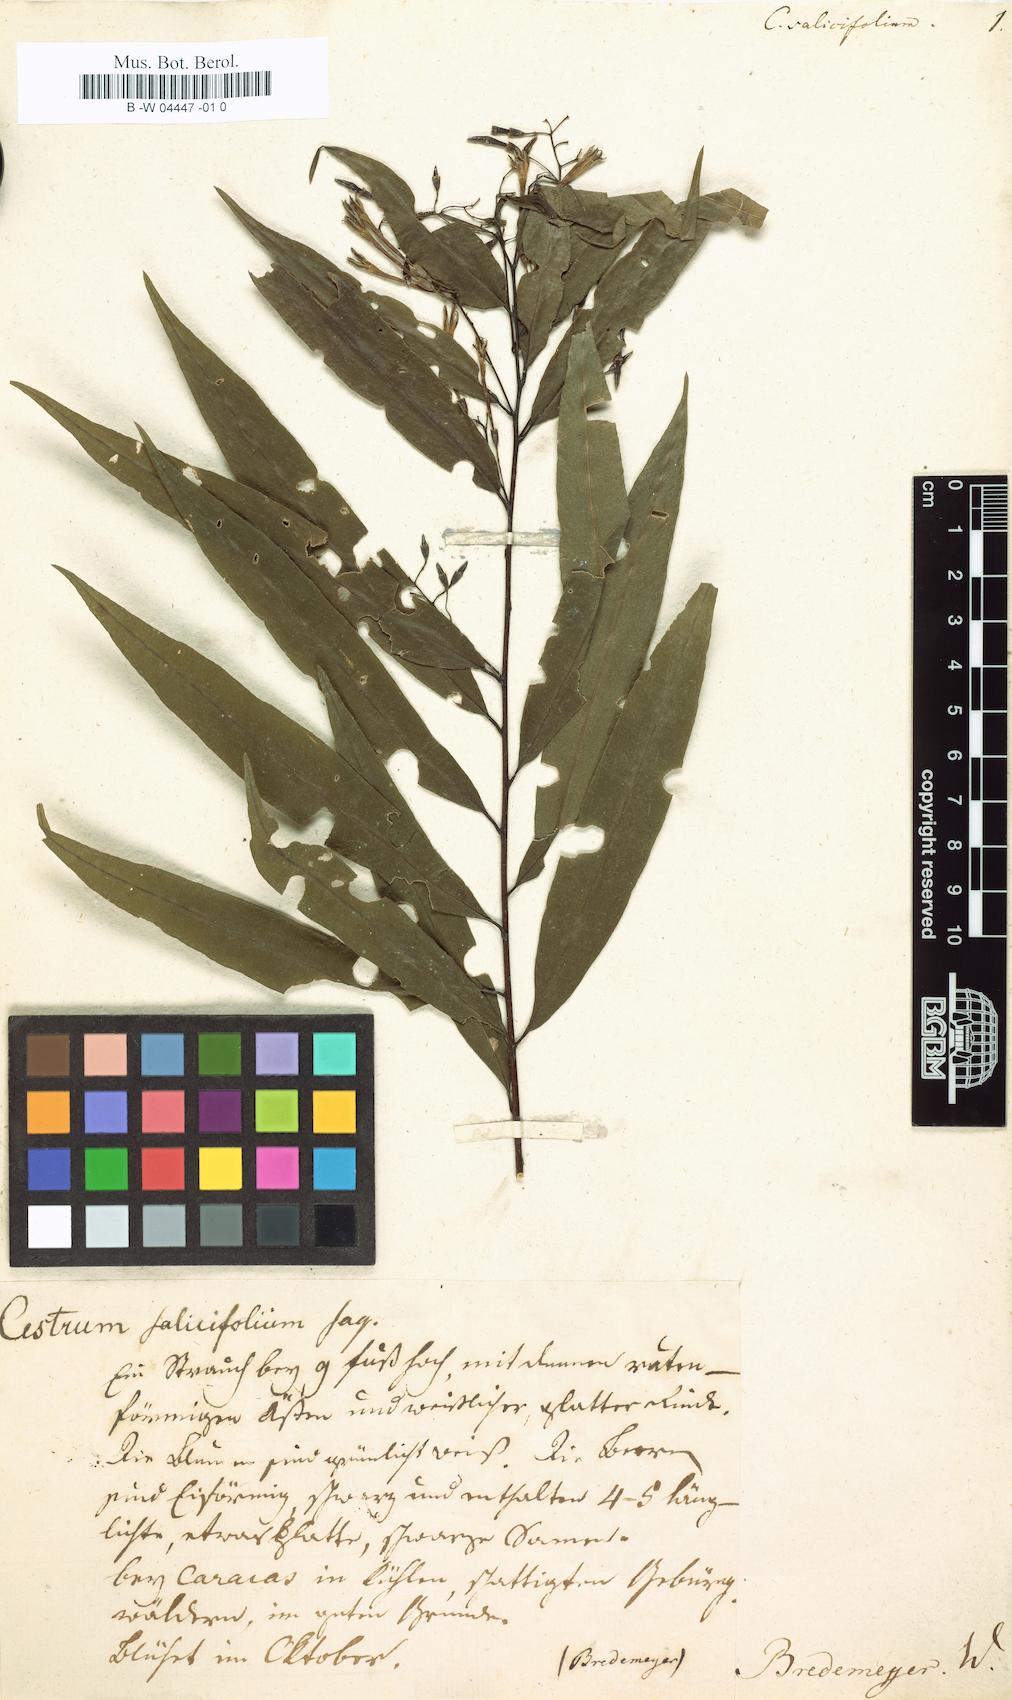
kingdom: Plantae
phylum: Tracheophyta
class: Magnoliopsida
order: Solanales
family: Solanaceae
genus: Cestrum
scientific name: Cestrum salicifolium
